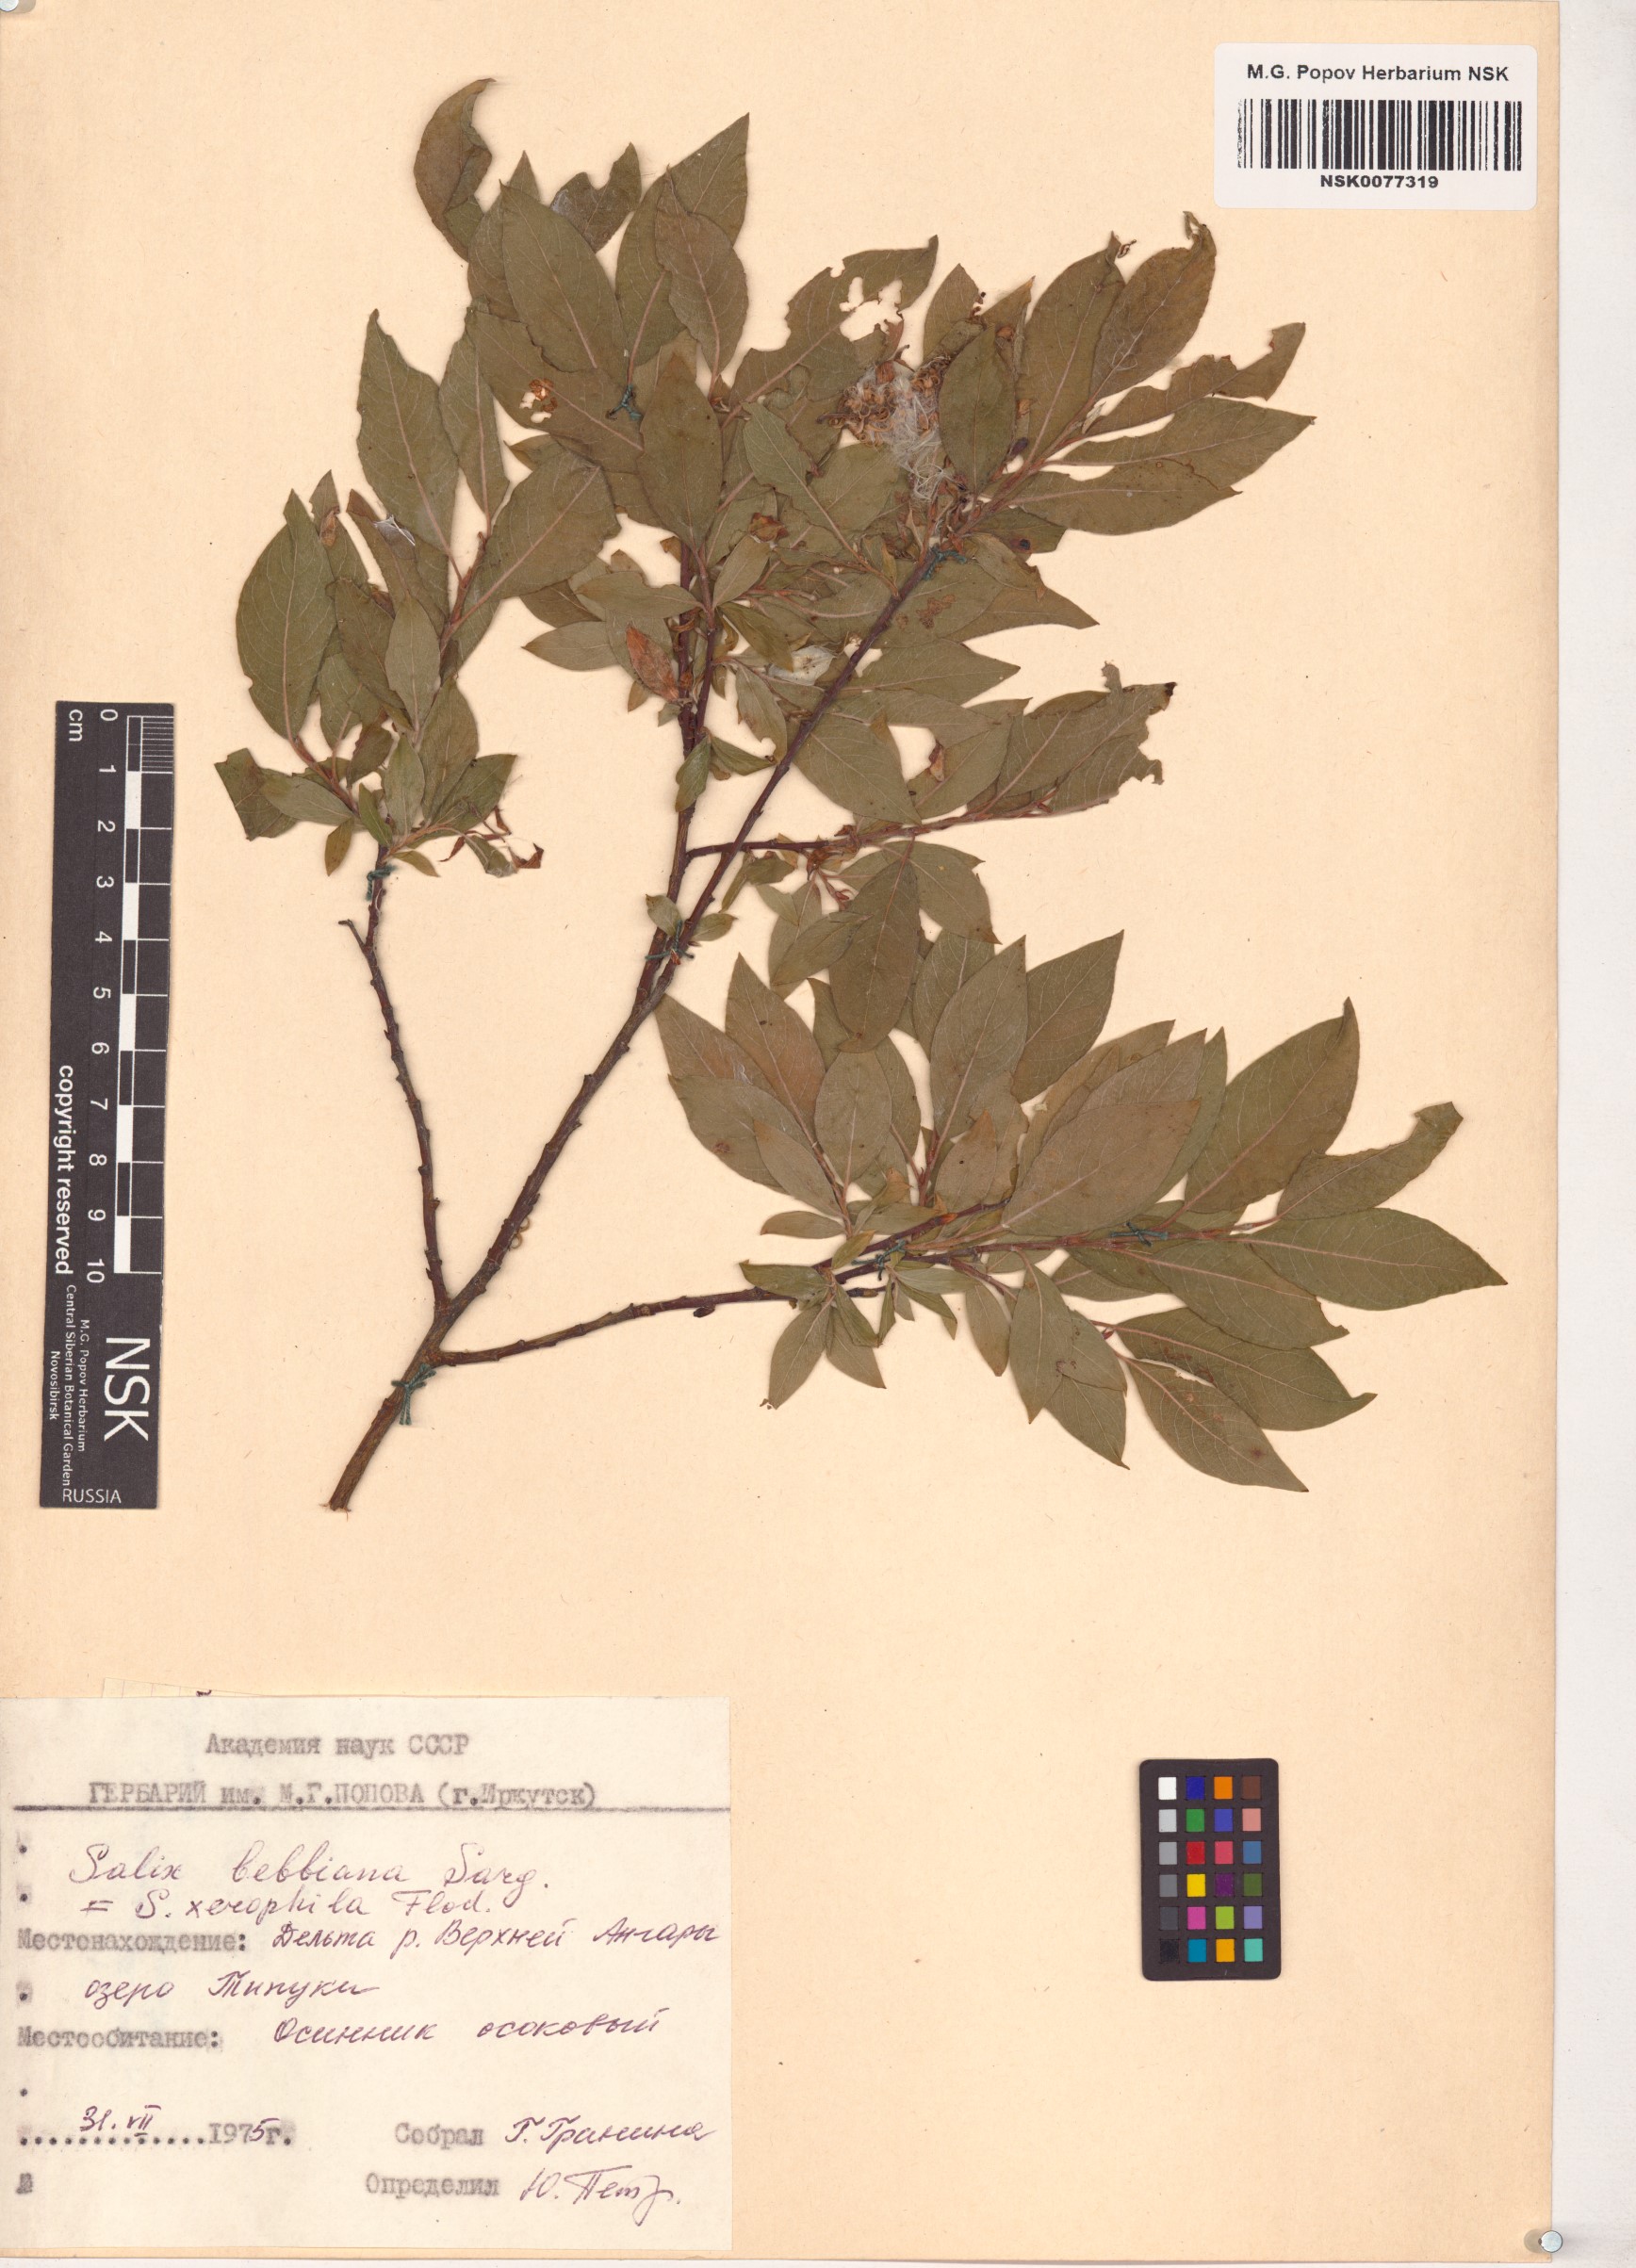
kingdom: Plantae
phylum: Tracheophyta
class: Magnoliopsida
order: Malpighiales
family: Salicaceae
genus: Salix
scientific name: Salix bebbiana
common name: Bebb's willow
